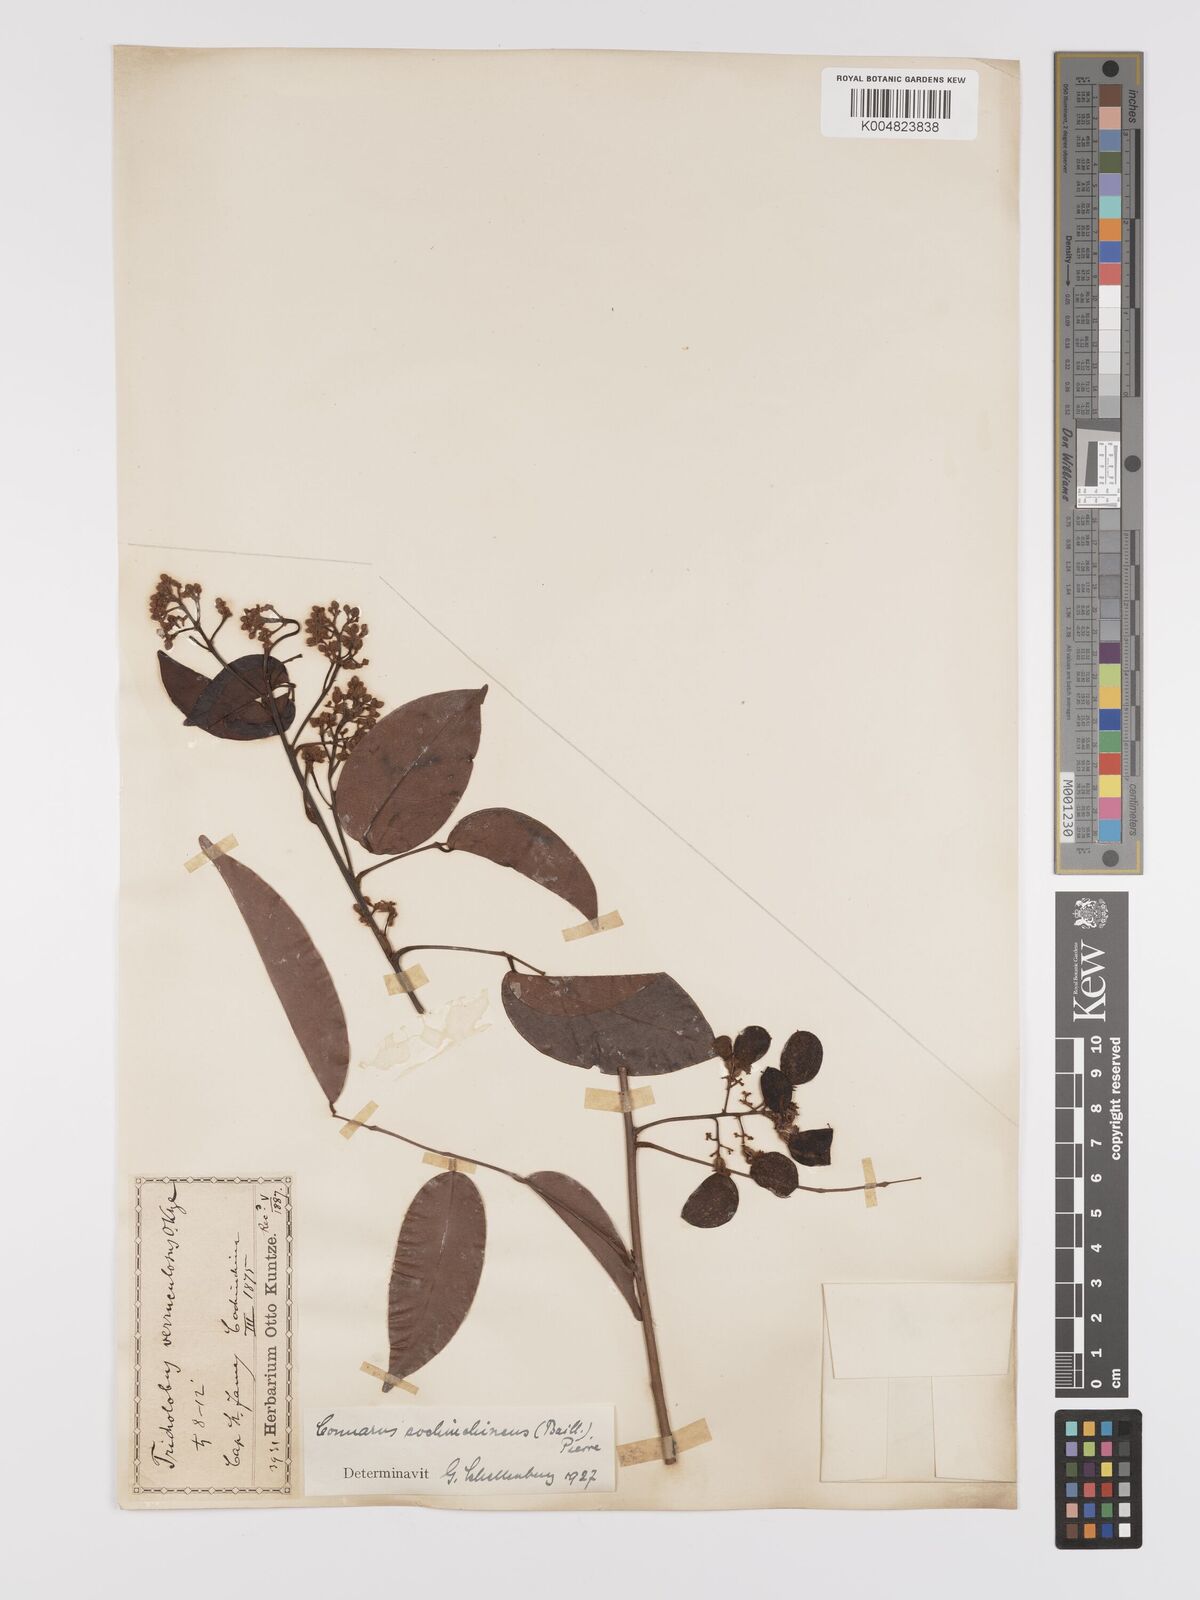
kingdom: Plantae
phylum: Tracheophyta
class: Magnoliopsida
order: Oxalidales
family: Connaraceae
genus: Connarus
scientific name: Connarus cochinchinensis
